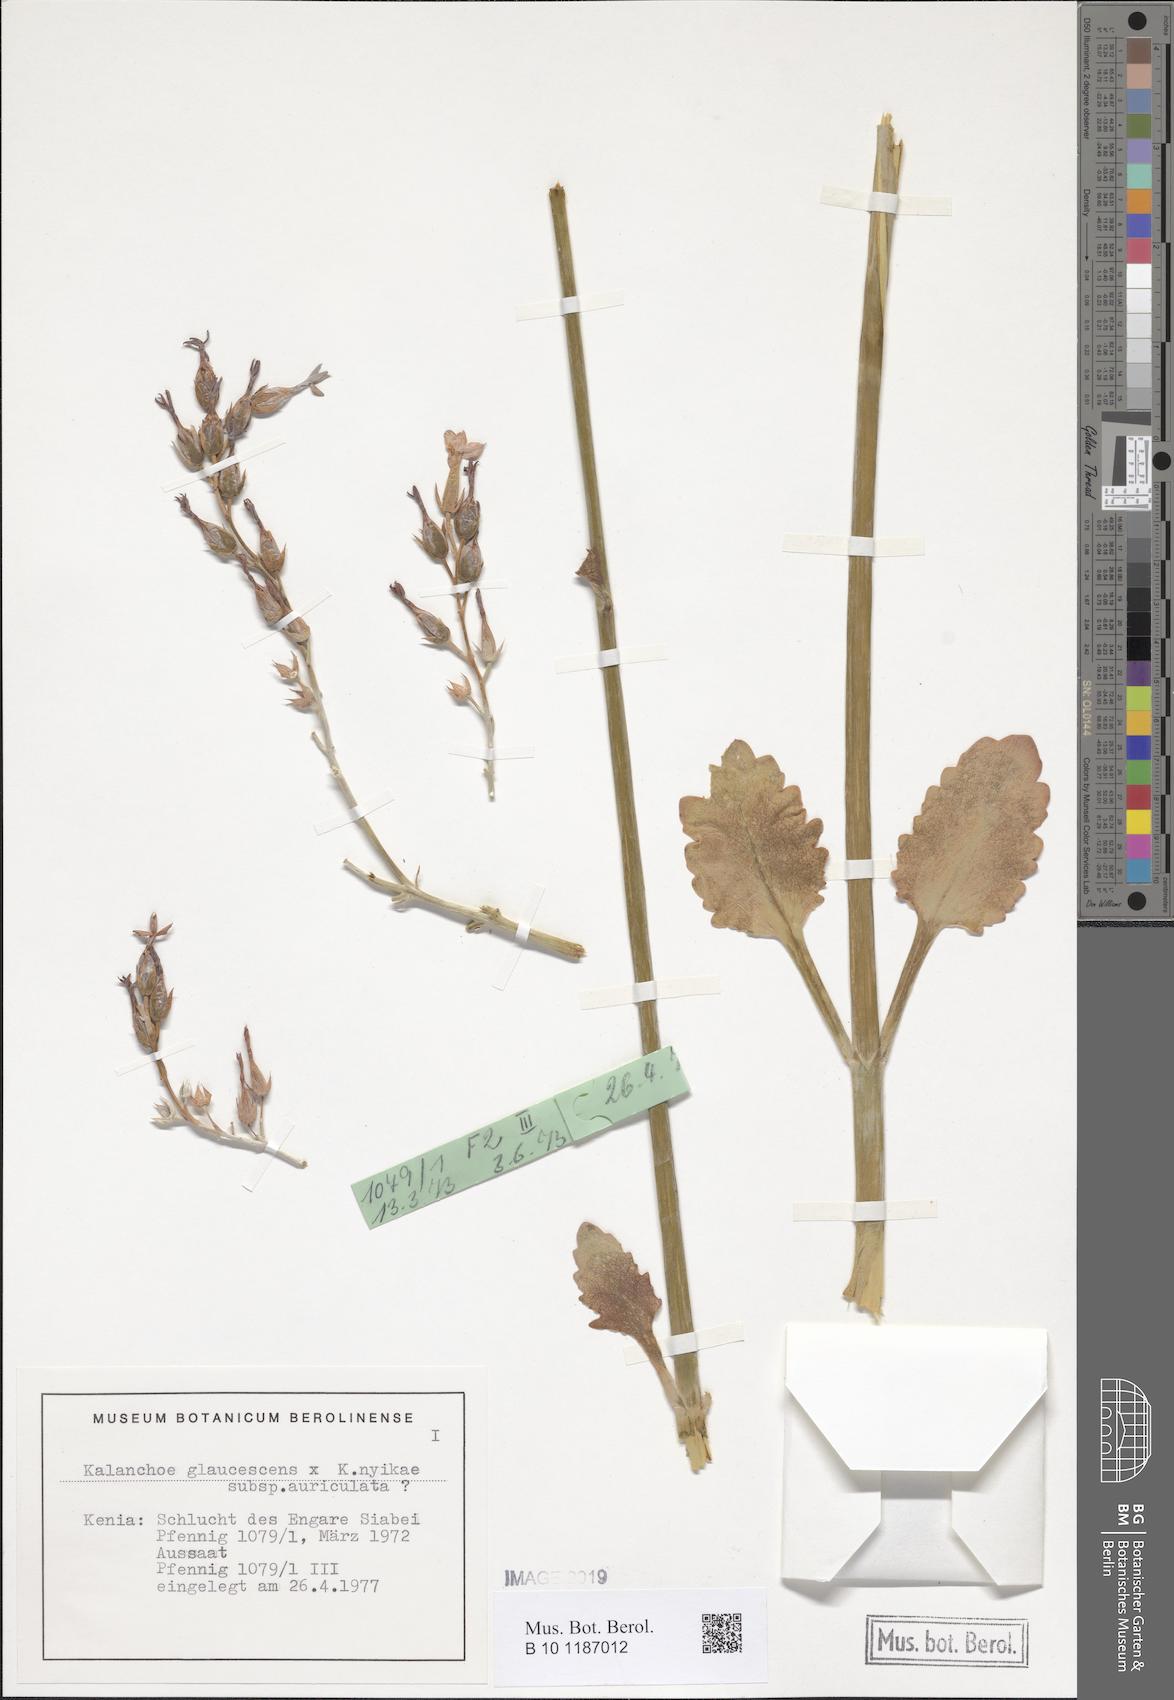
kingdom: Plantae
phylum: Tracheophyta
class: Magnoliopsida
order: Saxifragales
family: Crassulaceae
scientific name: Crassulaceae
